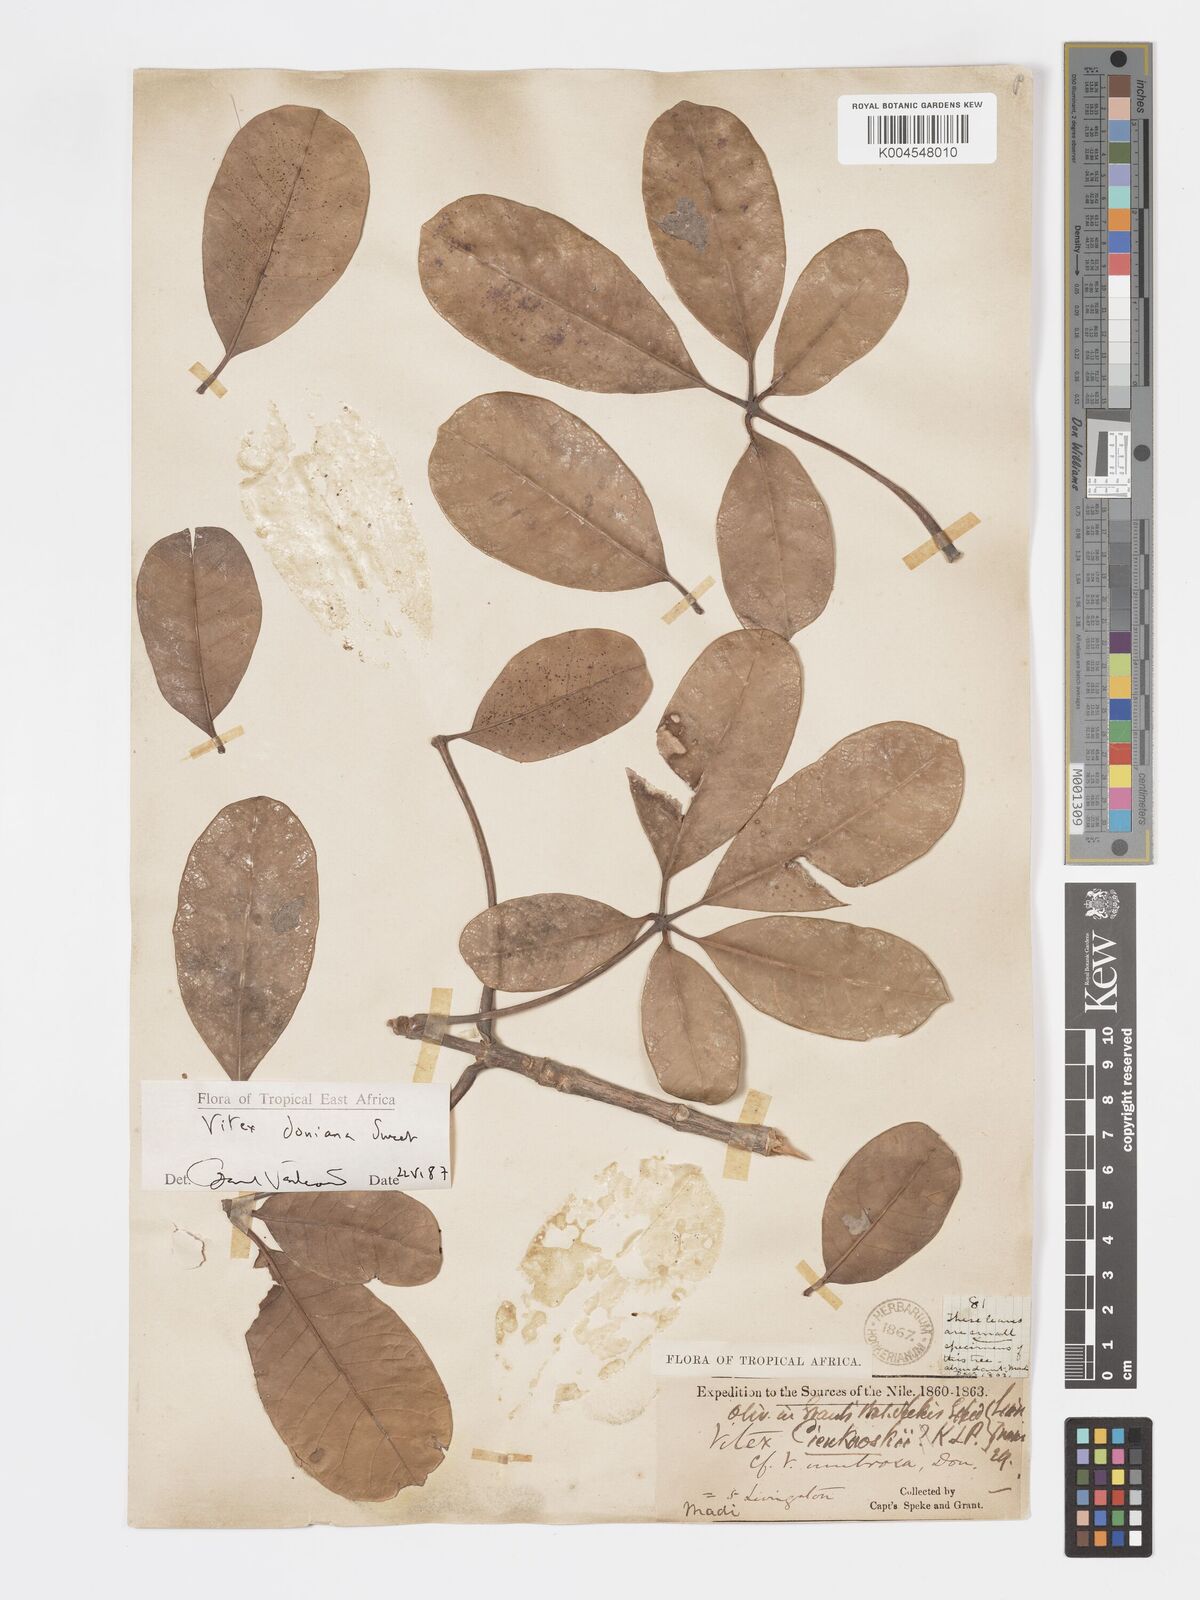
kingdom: Plantae
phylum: Tracheophyta
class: Magnoliopsida
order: Lamiales
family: Lamiaceae
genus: Vitex
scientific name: Vitex doniana
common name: Black plum
